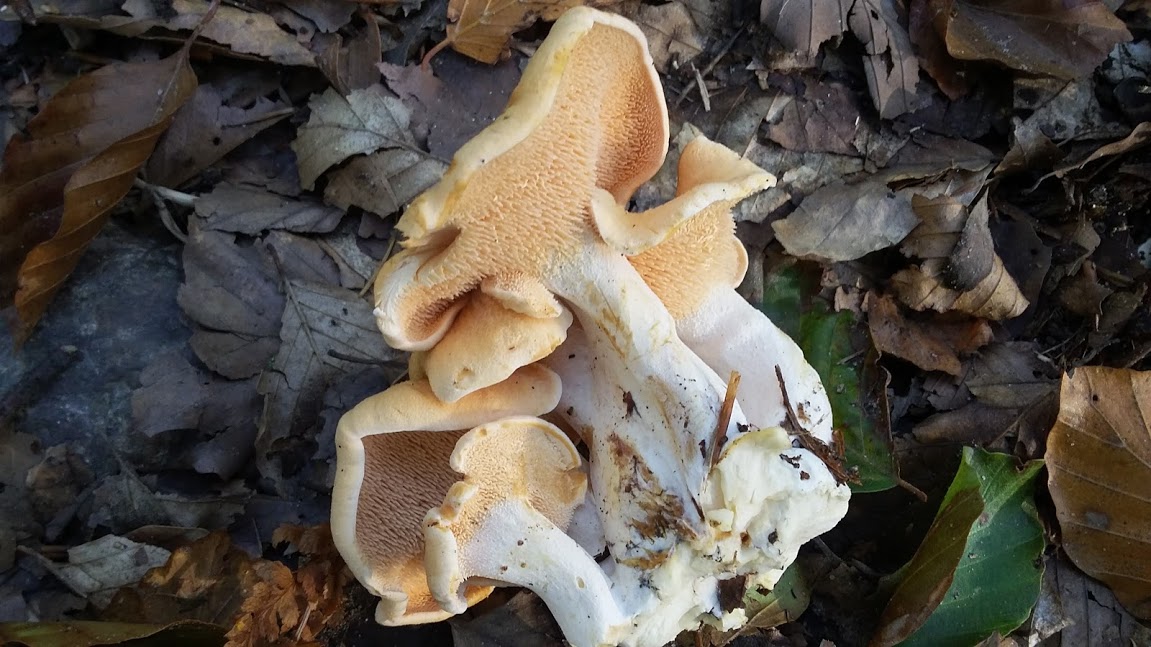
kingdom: Fungi
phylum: Basidiomycota
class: Agaricomycetes
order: Cantharellales
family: Hydnaceae
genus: Hydnum
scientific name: Hydnum
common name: pigsvamp
